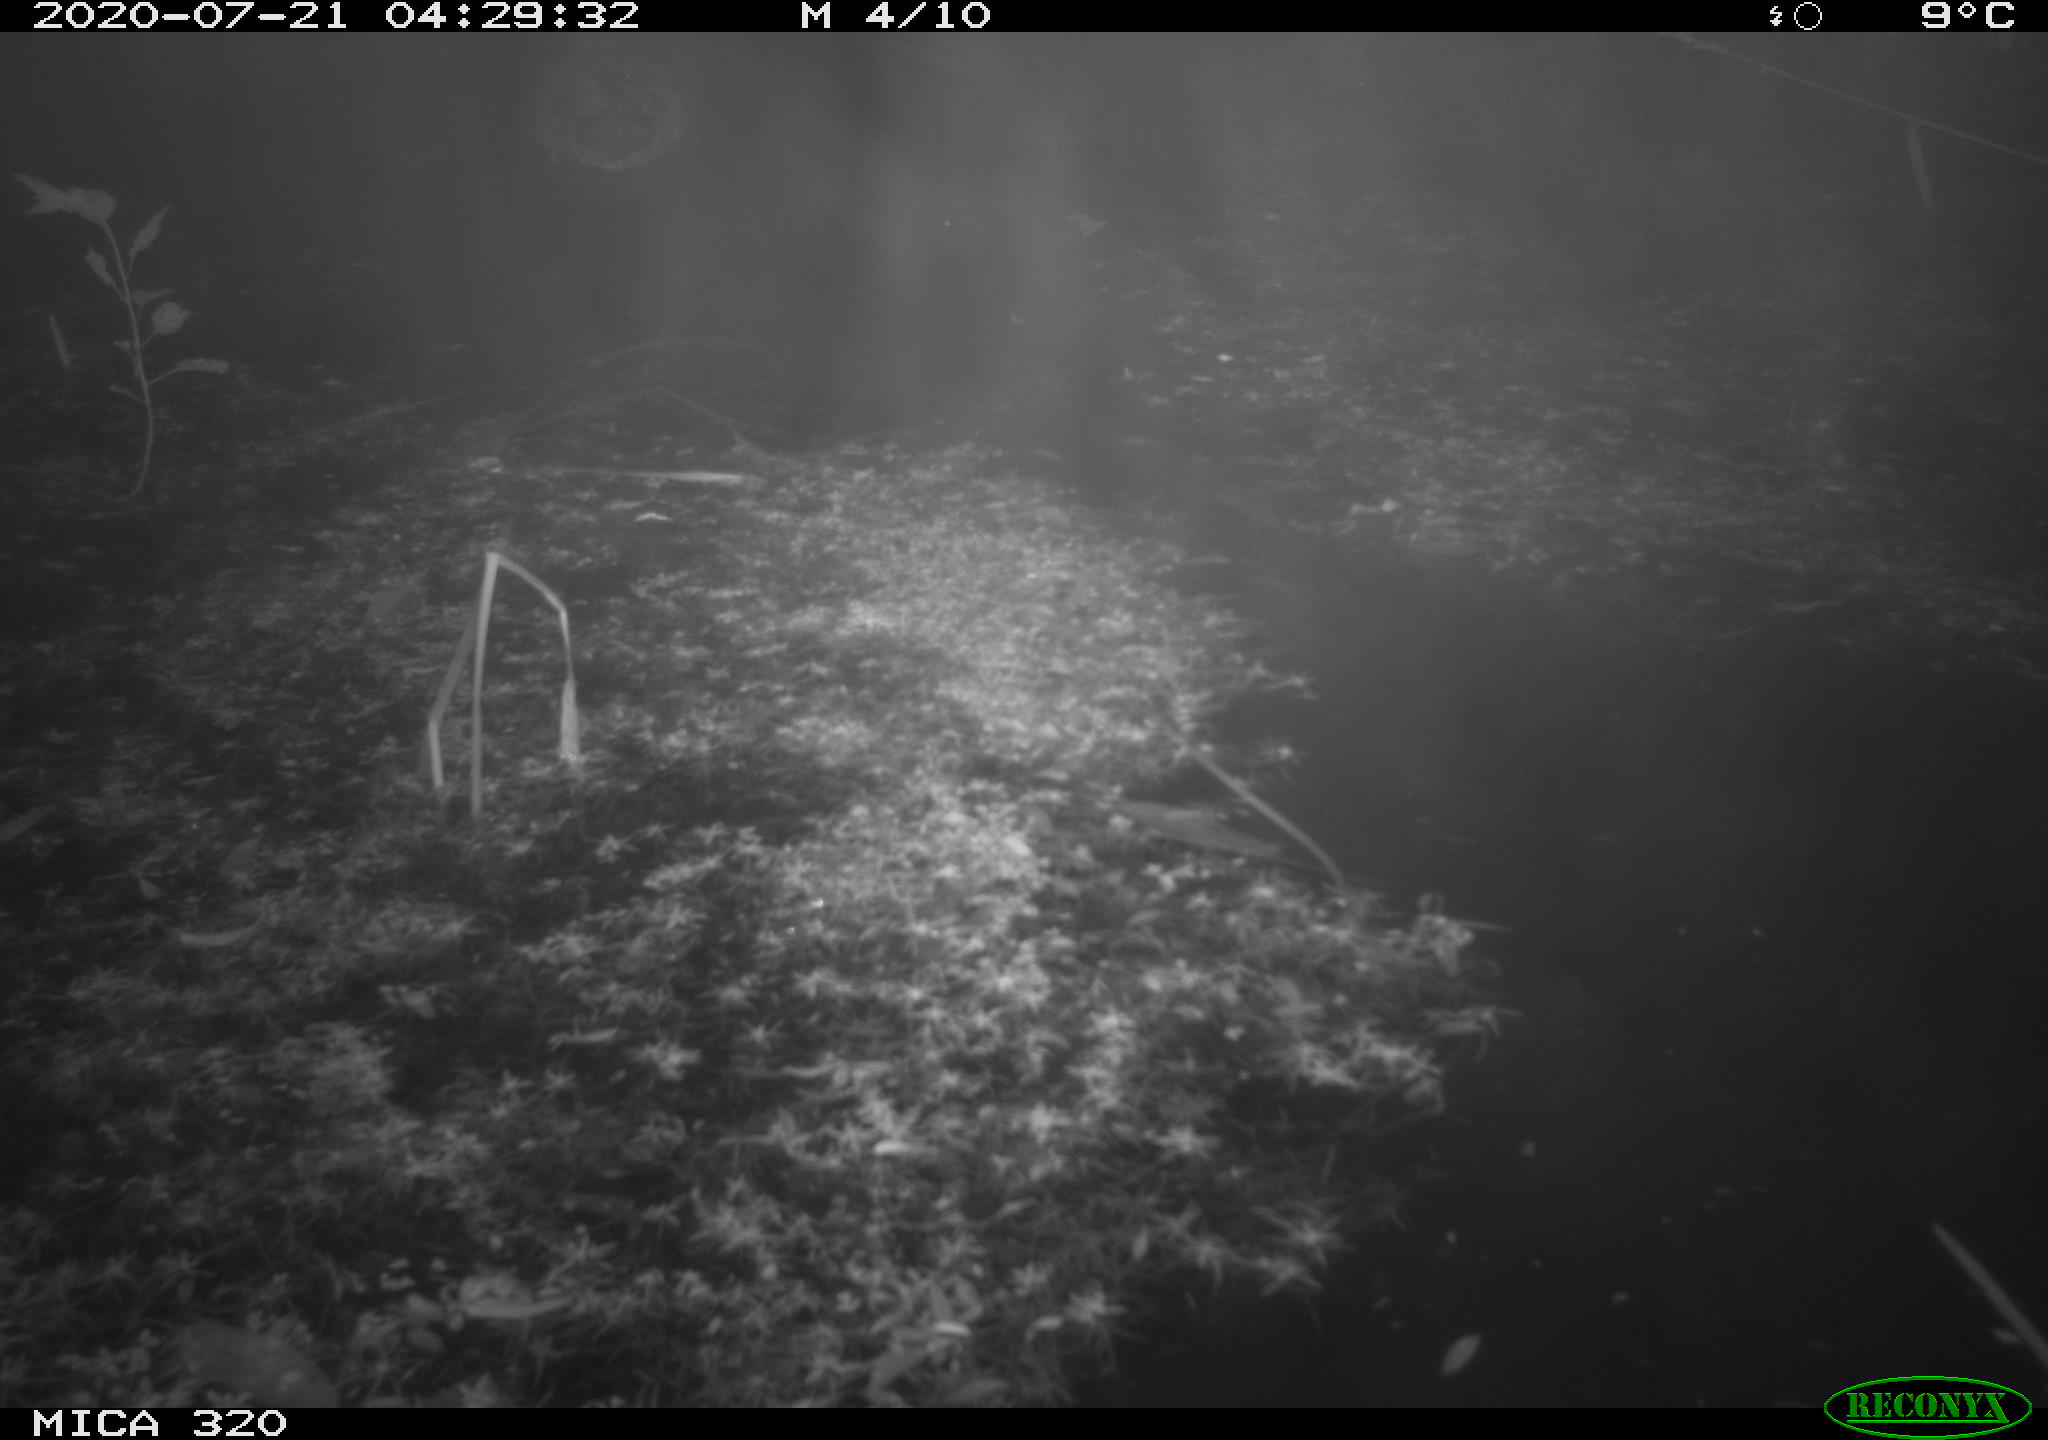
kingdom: Animalia
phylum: Chordata
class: Aves
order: Anseriformes
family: Anatidae
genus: Anas
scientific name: Anas platyrhynchos
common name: Mallard
